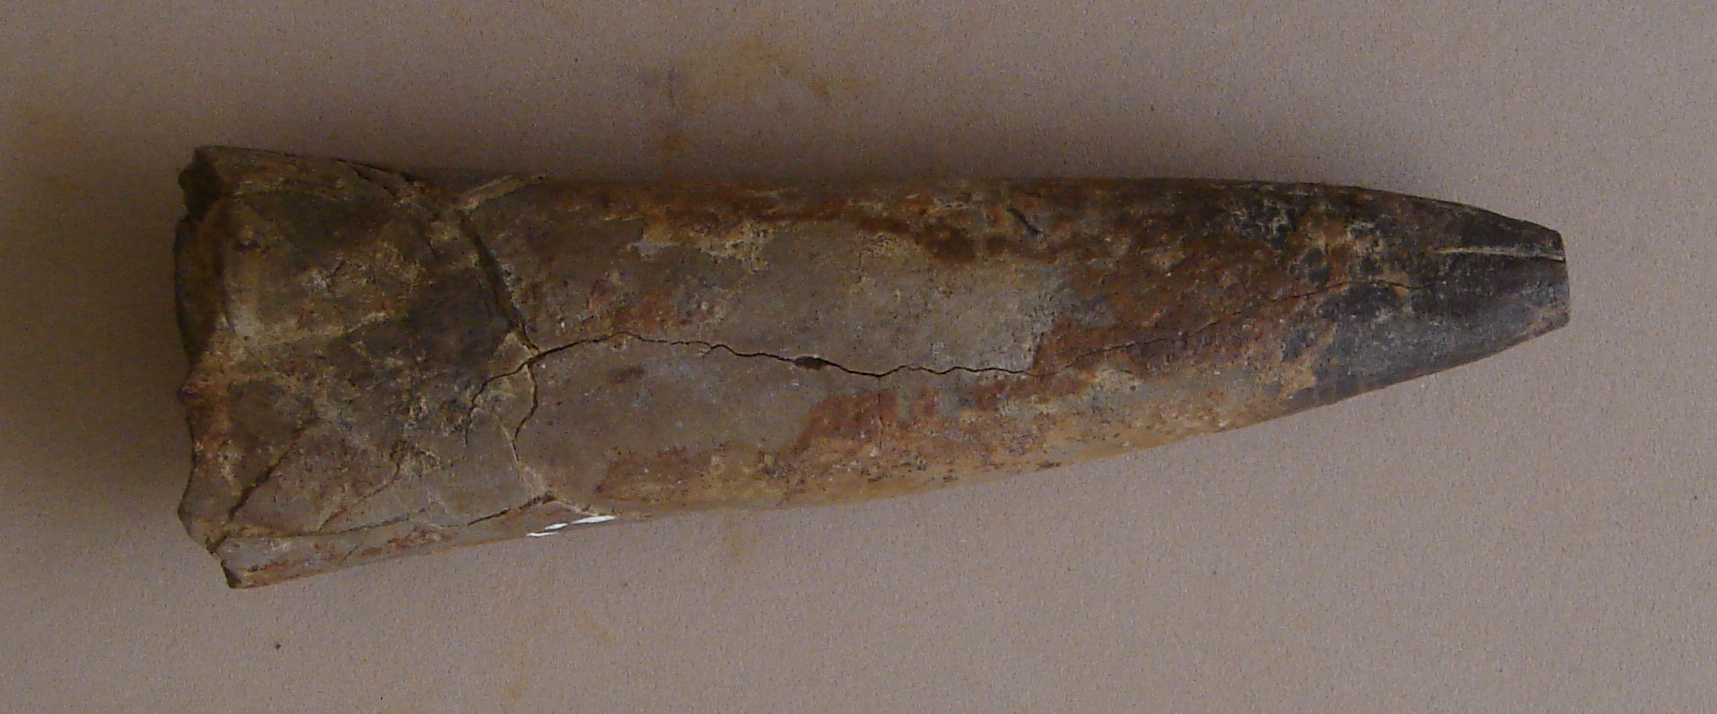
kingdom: Animalia
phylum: Mollusca
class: Cephalopoda
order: Belemnitida
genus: Mesoteuthis
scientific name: Mesoteuthis
